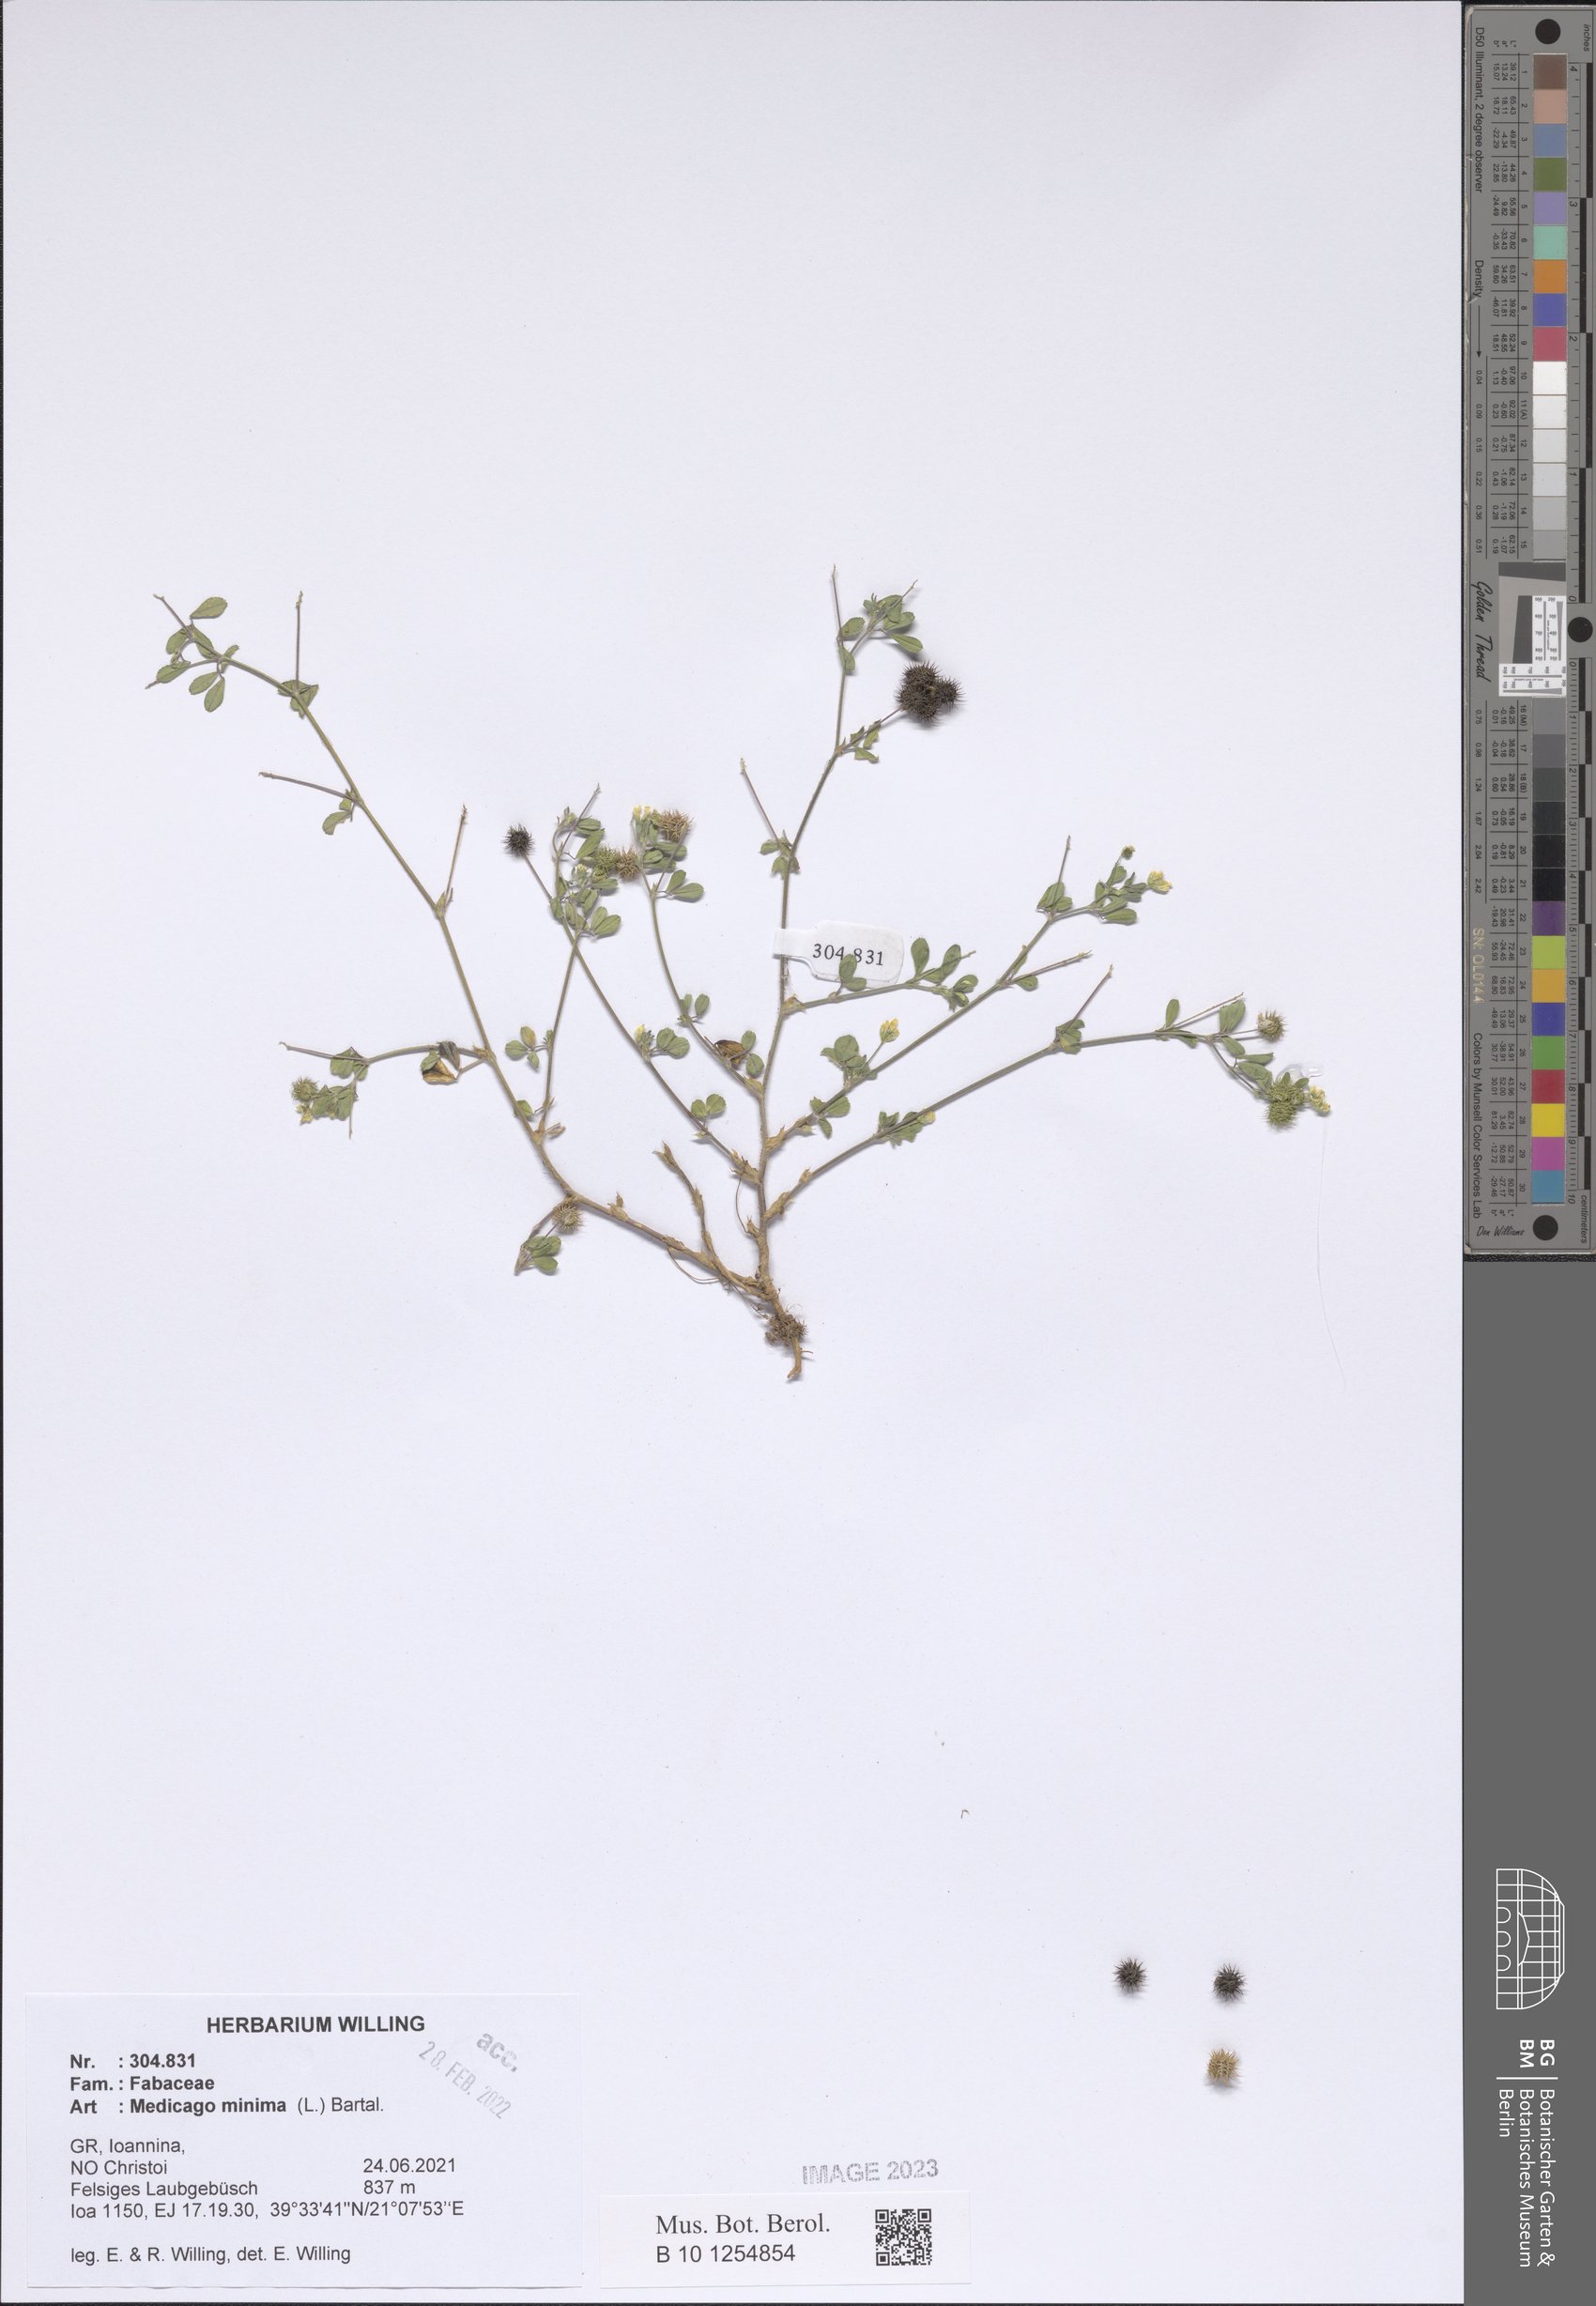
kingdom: Plantae
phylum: Tracheophyta
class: Magnoliopsida
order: Fabales
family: Fabaceae
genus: Medicago
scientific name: Medicago minima
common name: Little bur-clover
